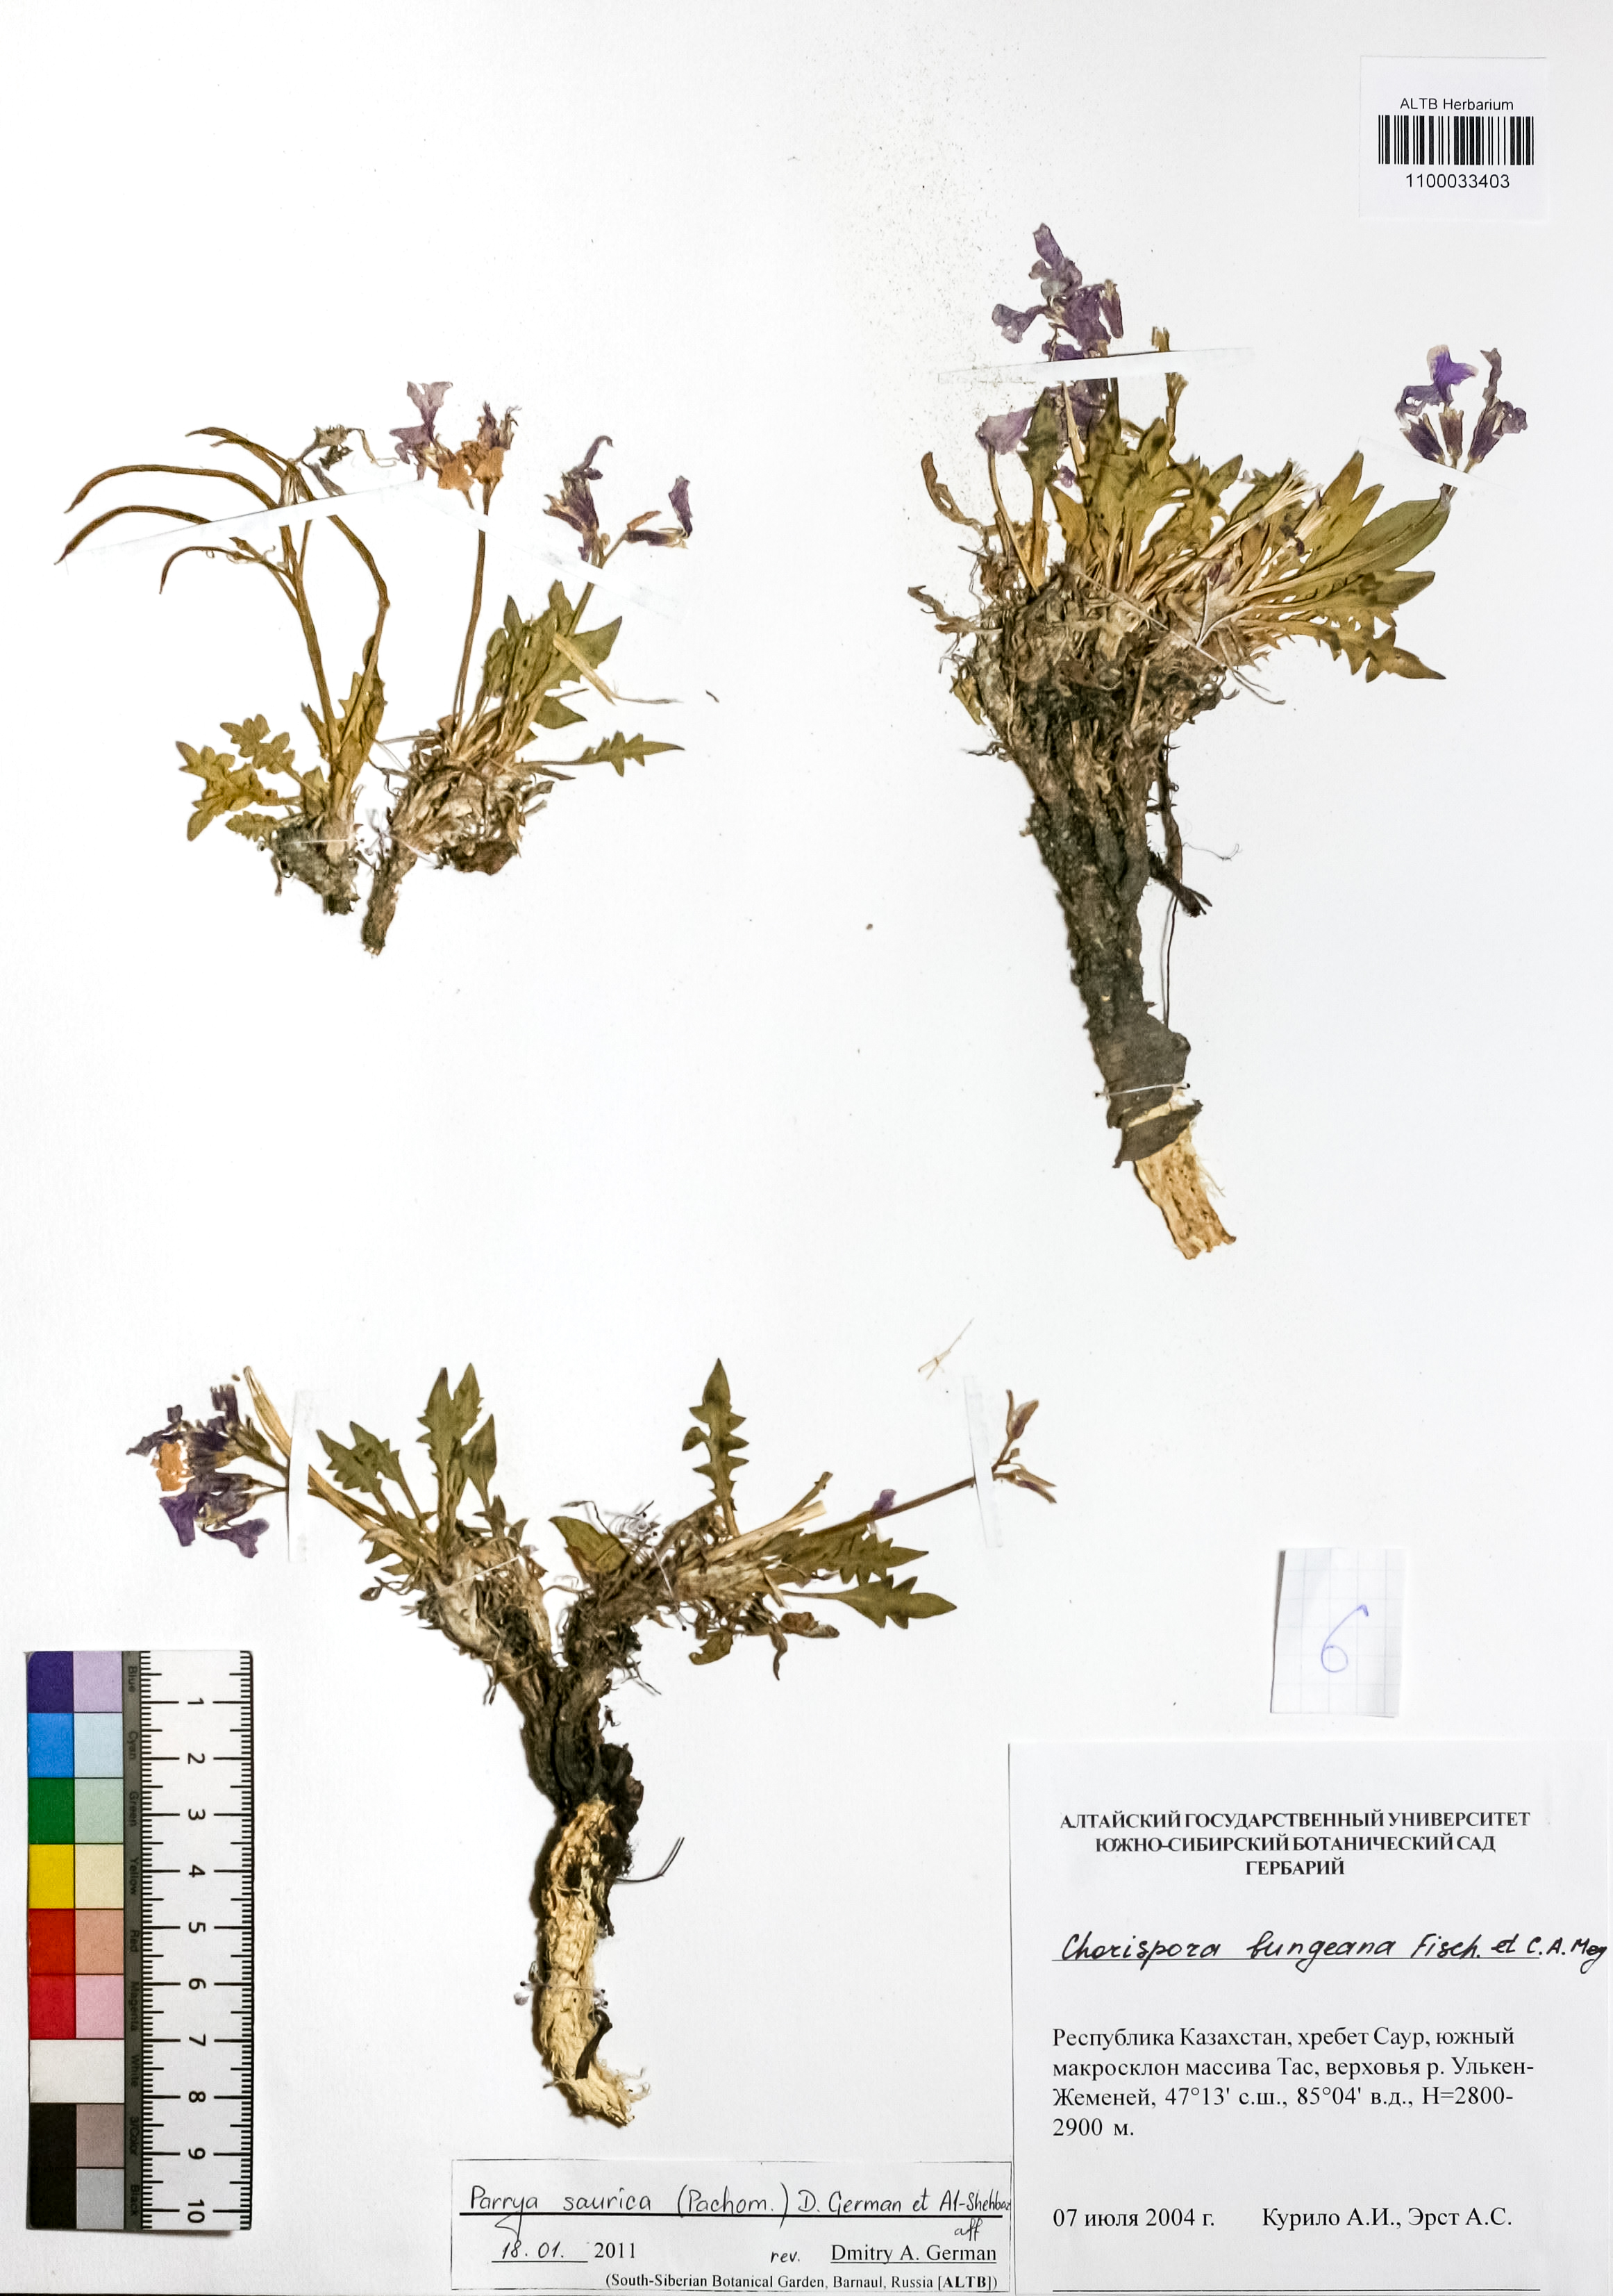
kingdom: Plantae
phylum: Tracheophyta
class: Magnoliopsida
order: Brassicales
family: Brassicaceae
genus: Parrya
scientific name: Parrya saurica
